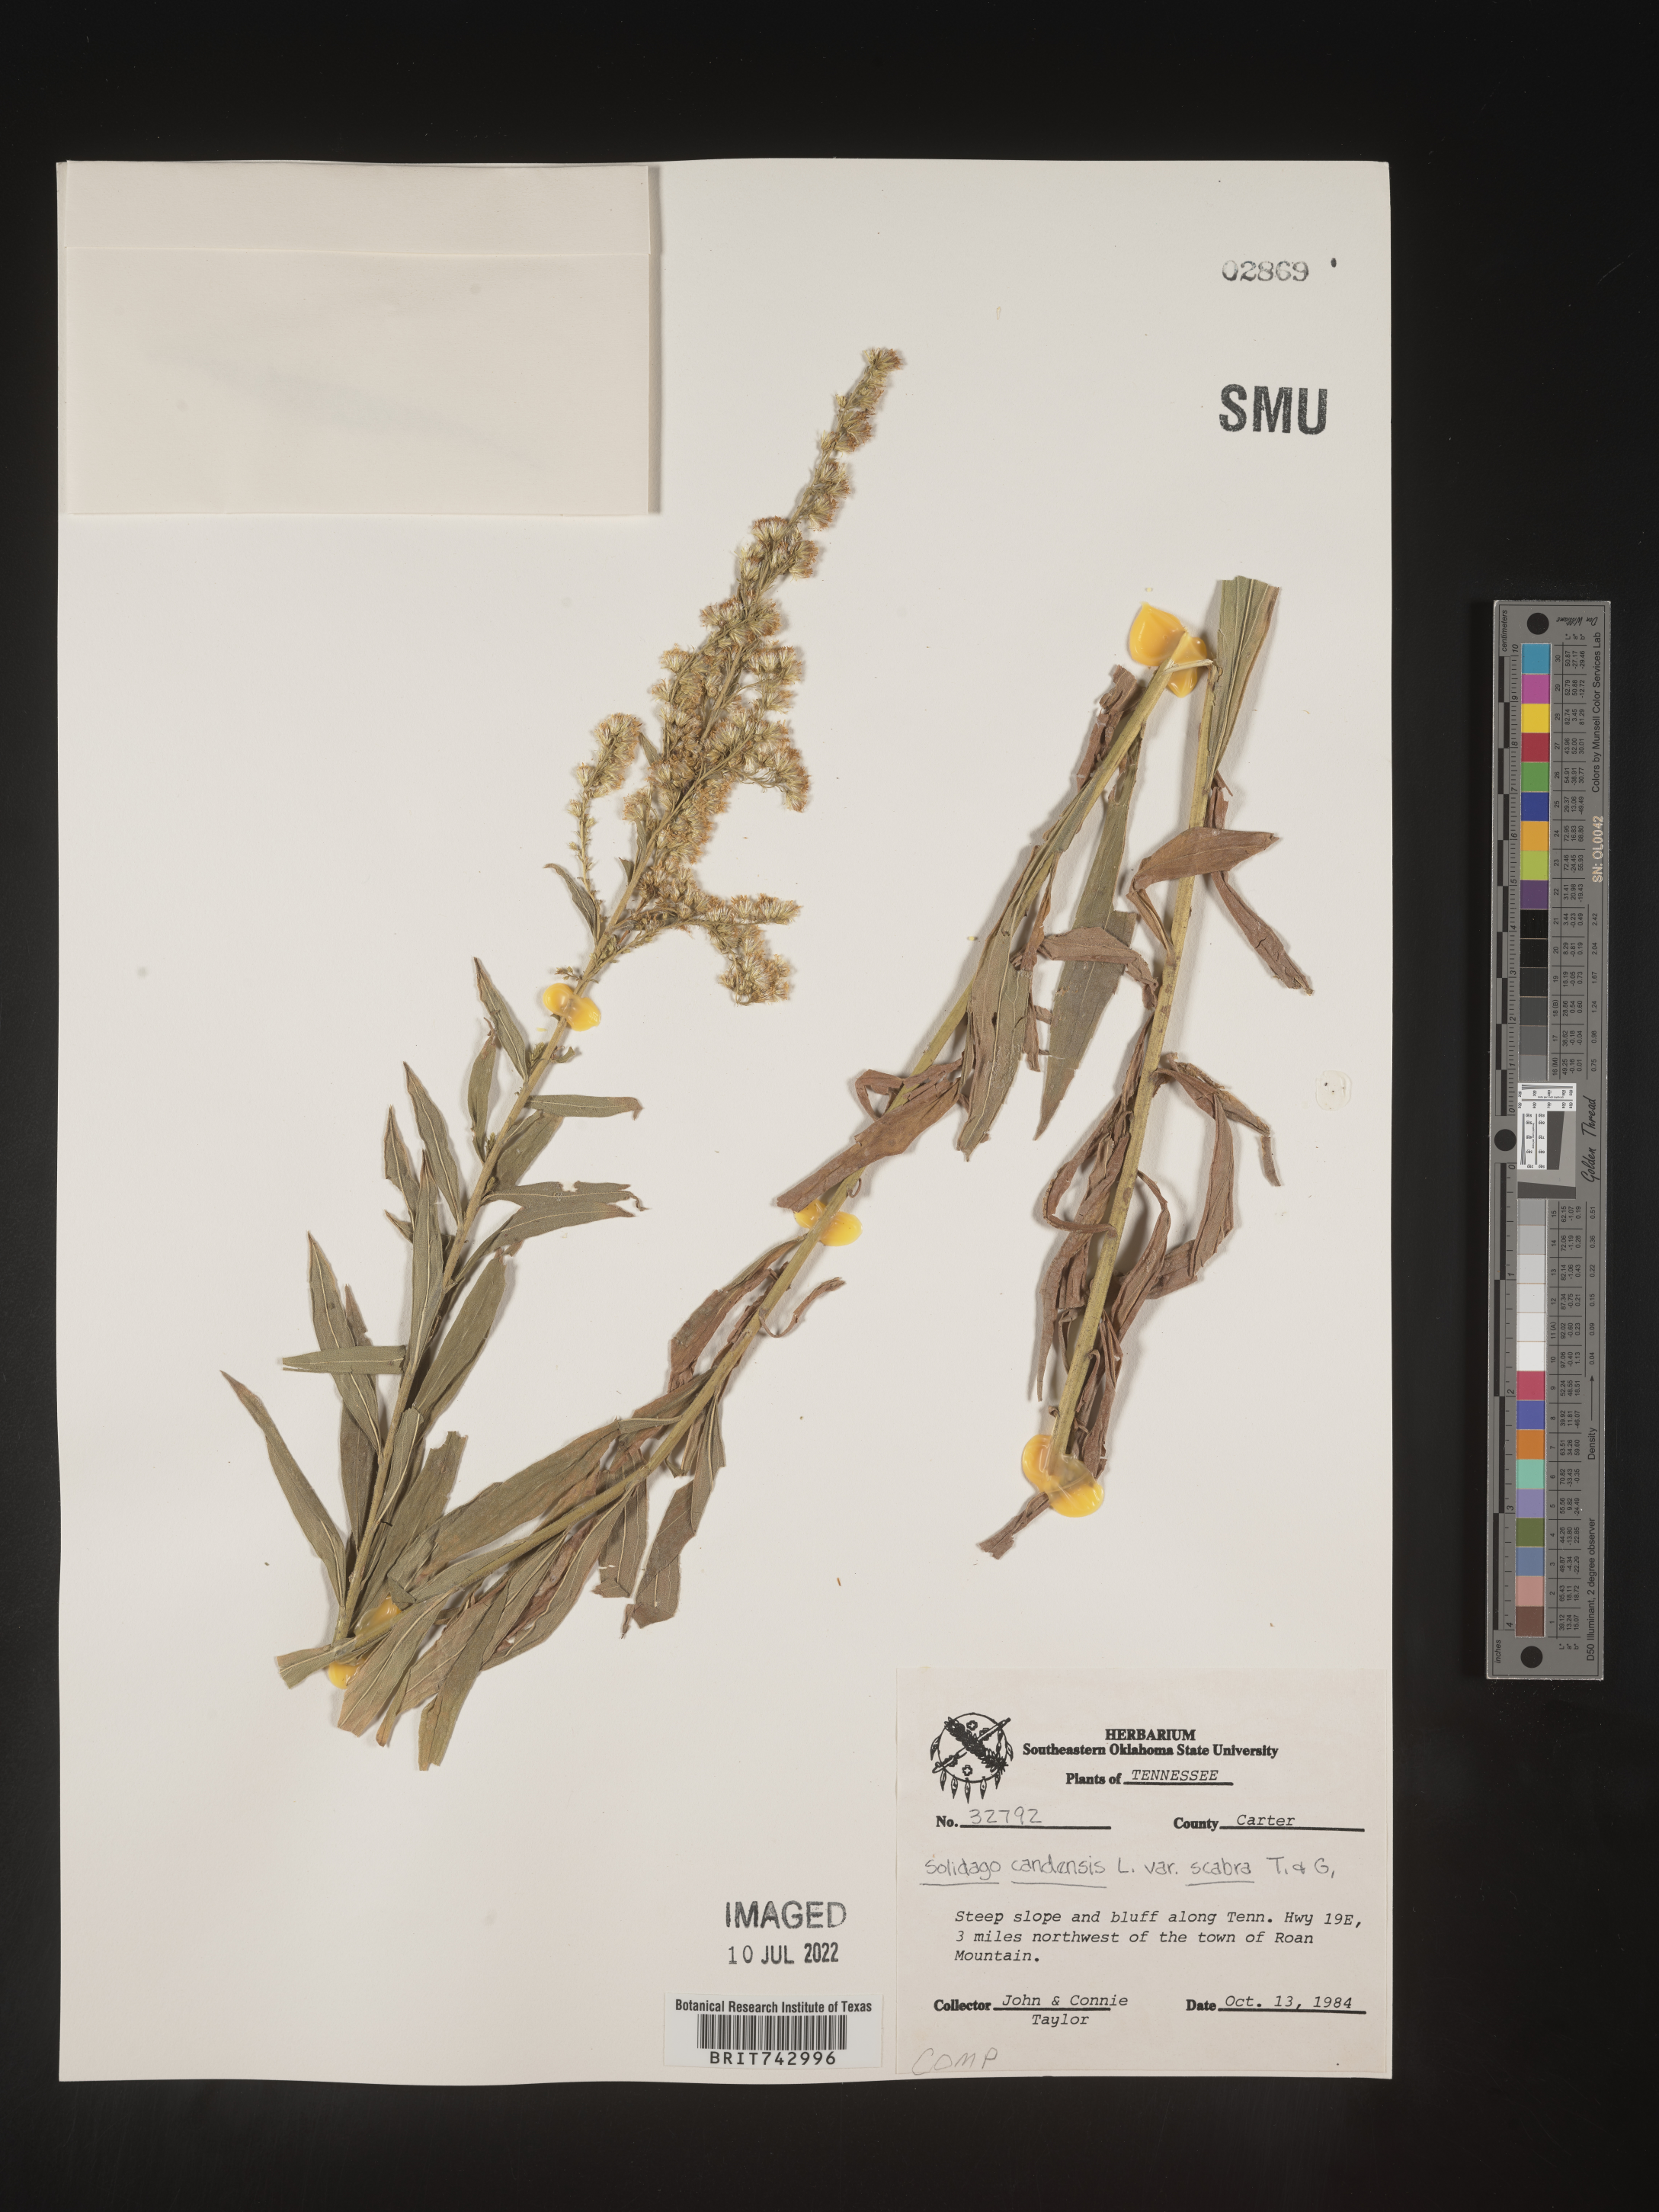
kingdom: Plantae
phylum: Tracheophyta
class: Magnoliopsida
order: Asterales
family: Asteraceae
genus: Solidago
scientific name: Solidago altissima
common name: Late goldenrod
